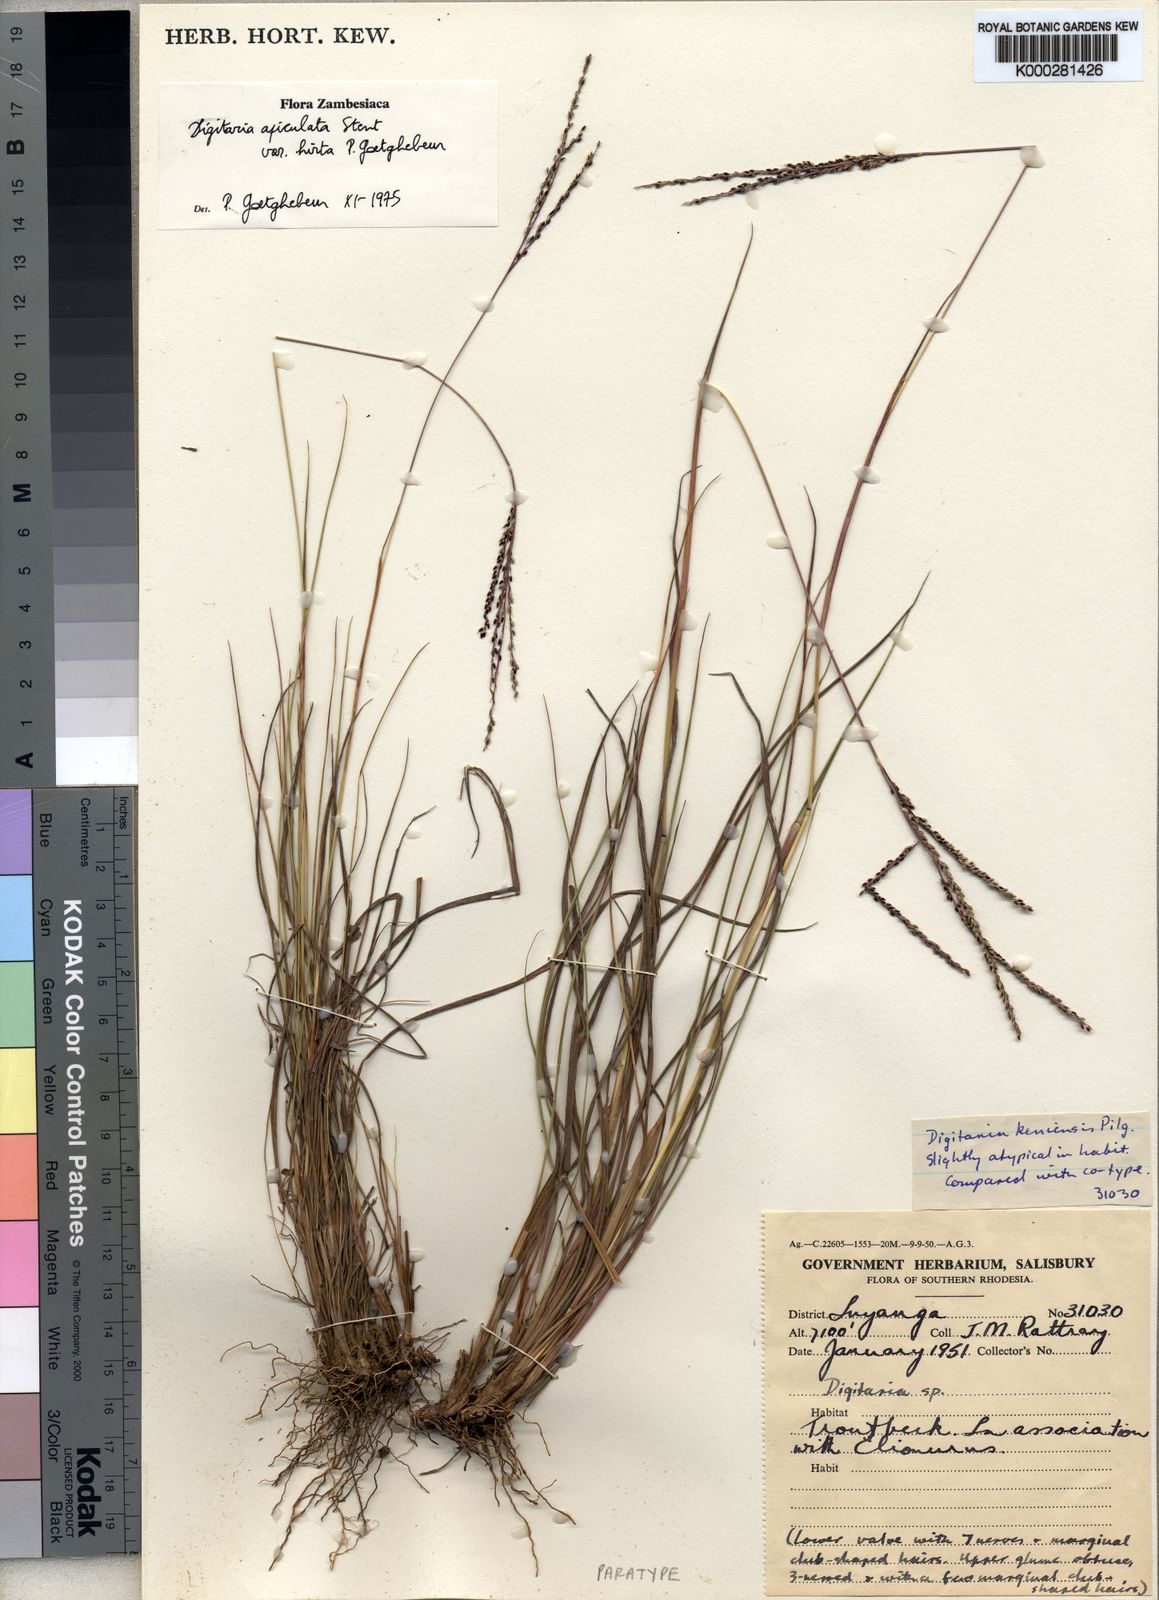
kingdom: Plantae
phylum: Tracheophyta
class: Liliopsida
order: Poales
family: Poaceae
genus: Digitaria
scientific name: Digitaria maitlandii
